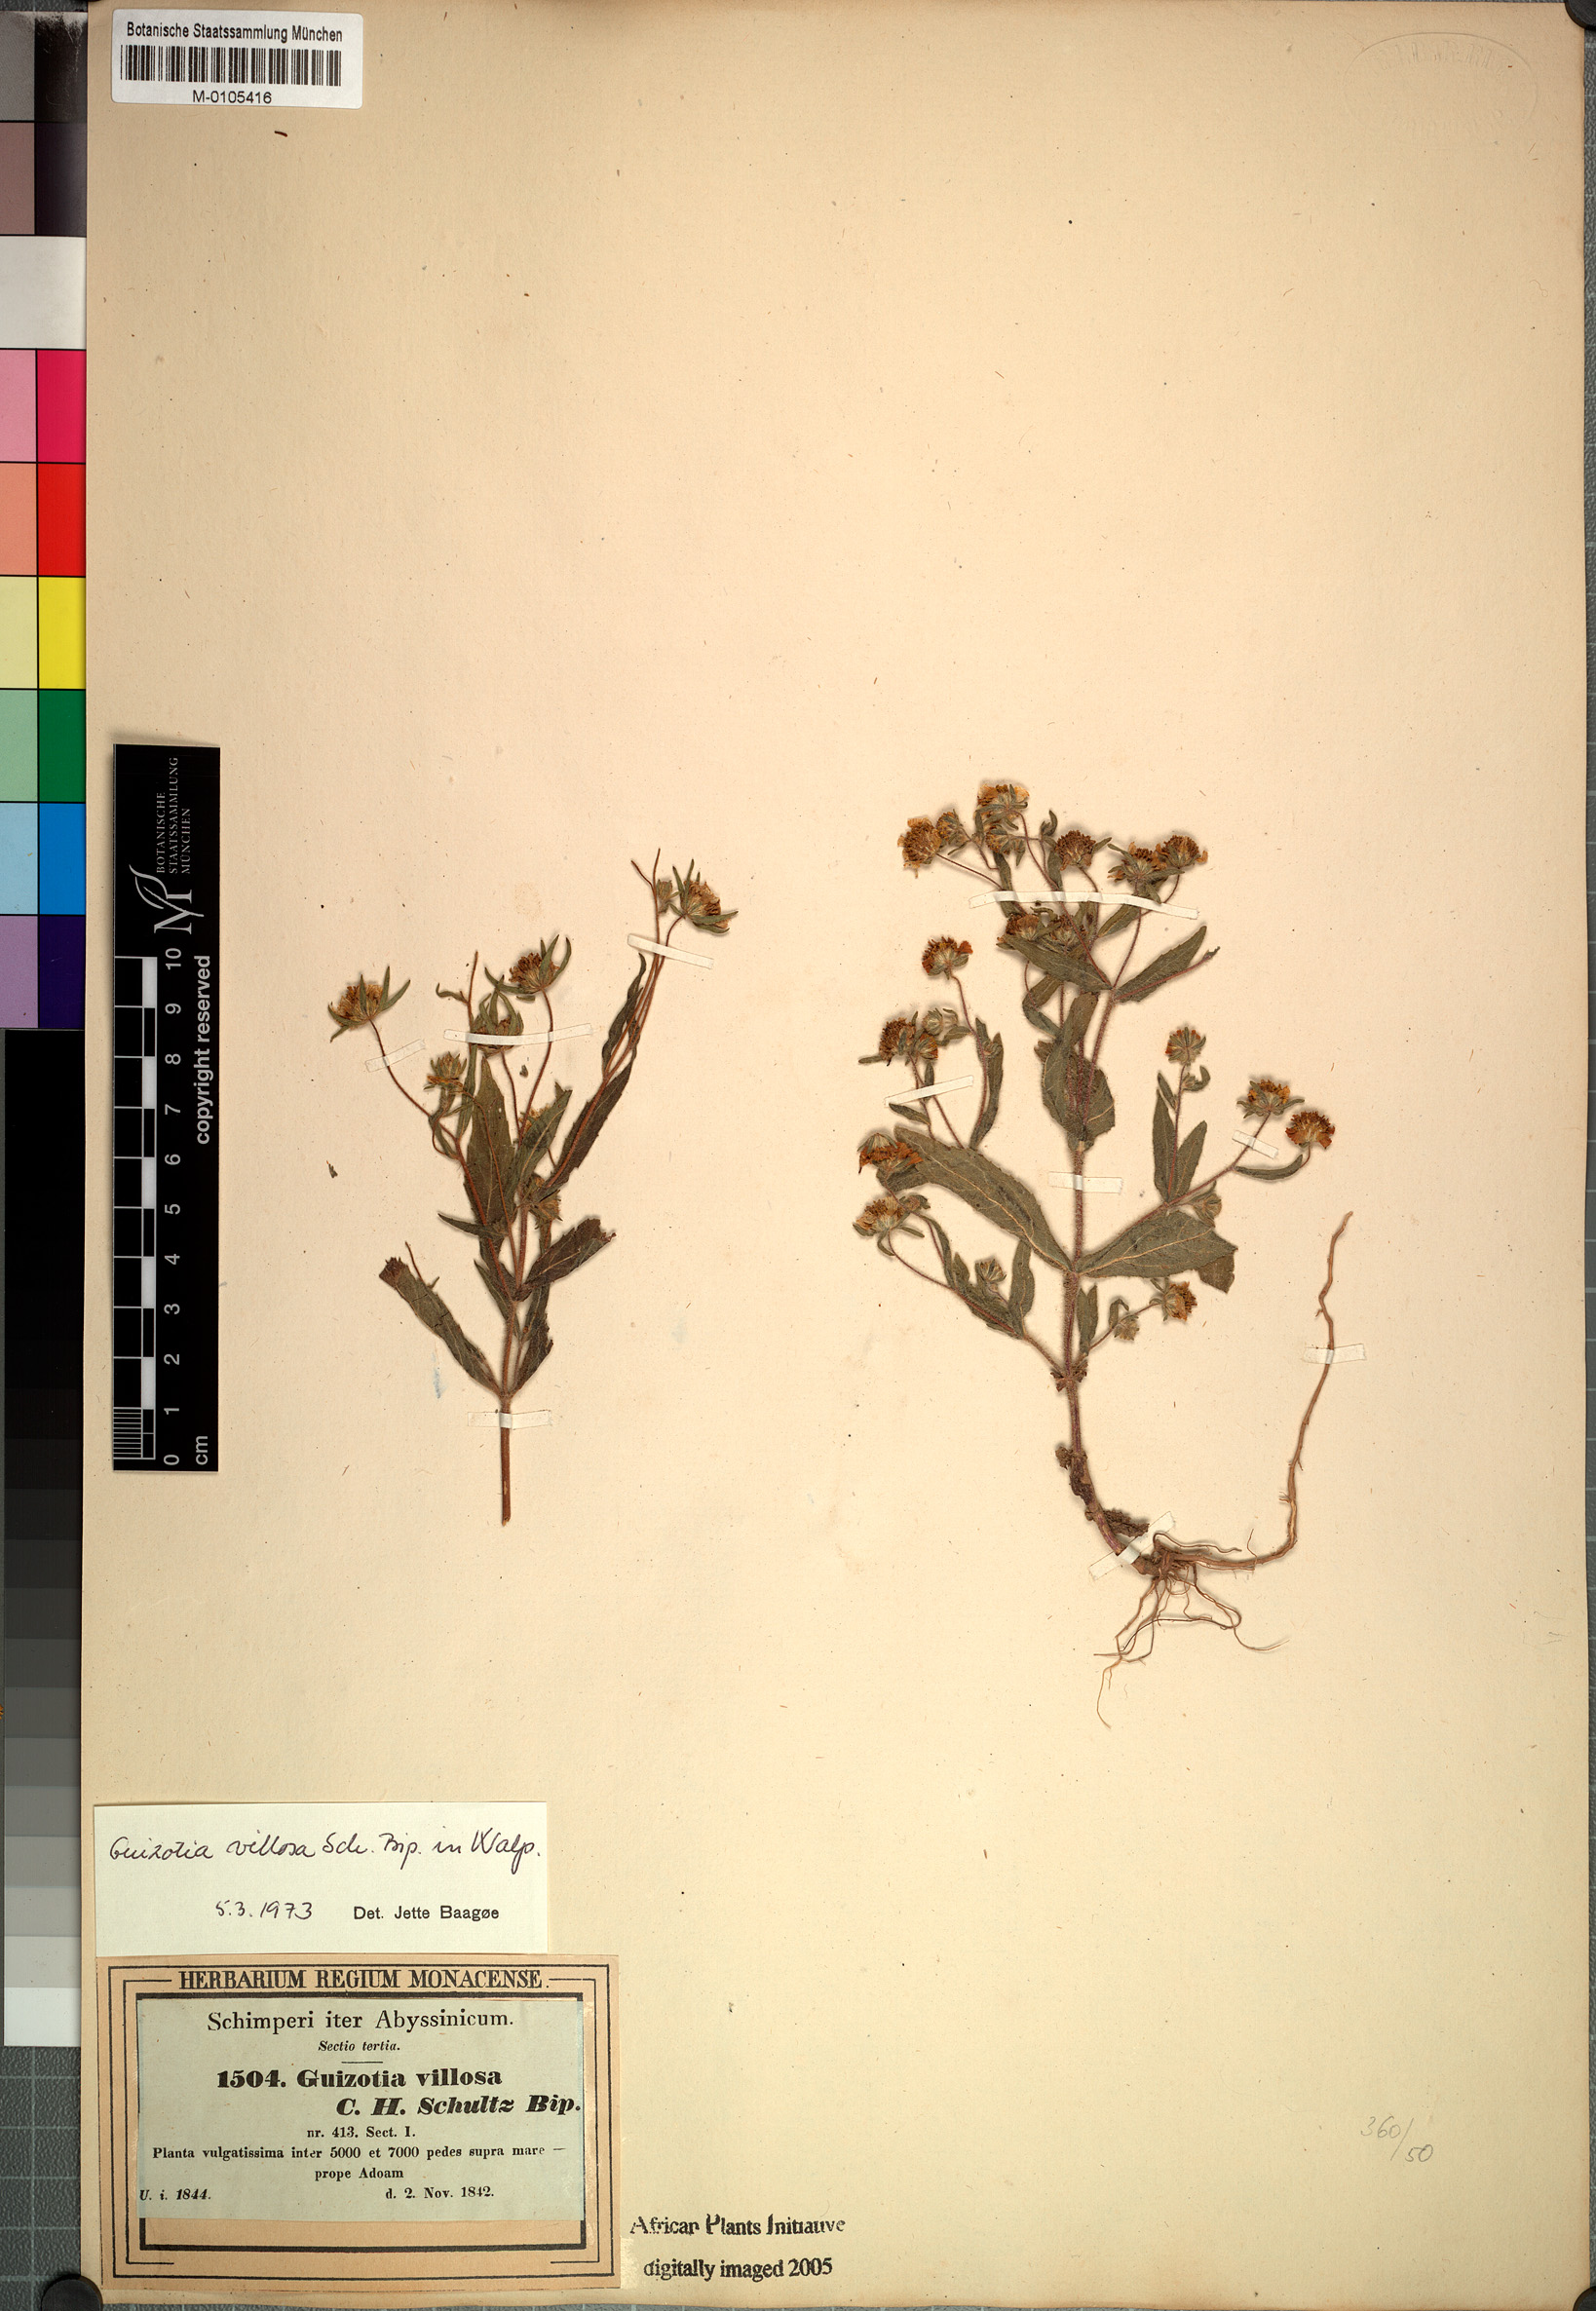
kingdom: Plantae
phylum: Tracheophyta
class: Magnoliopsida
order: Asterales
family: Asteraceae
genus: Guizotia
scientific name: Guizotia villosa
